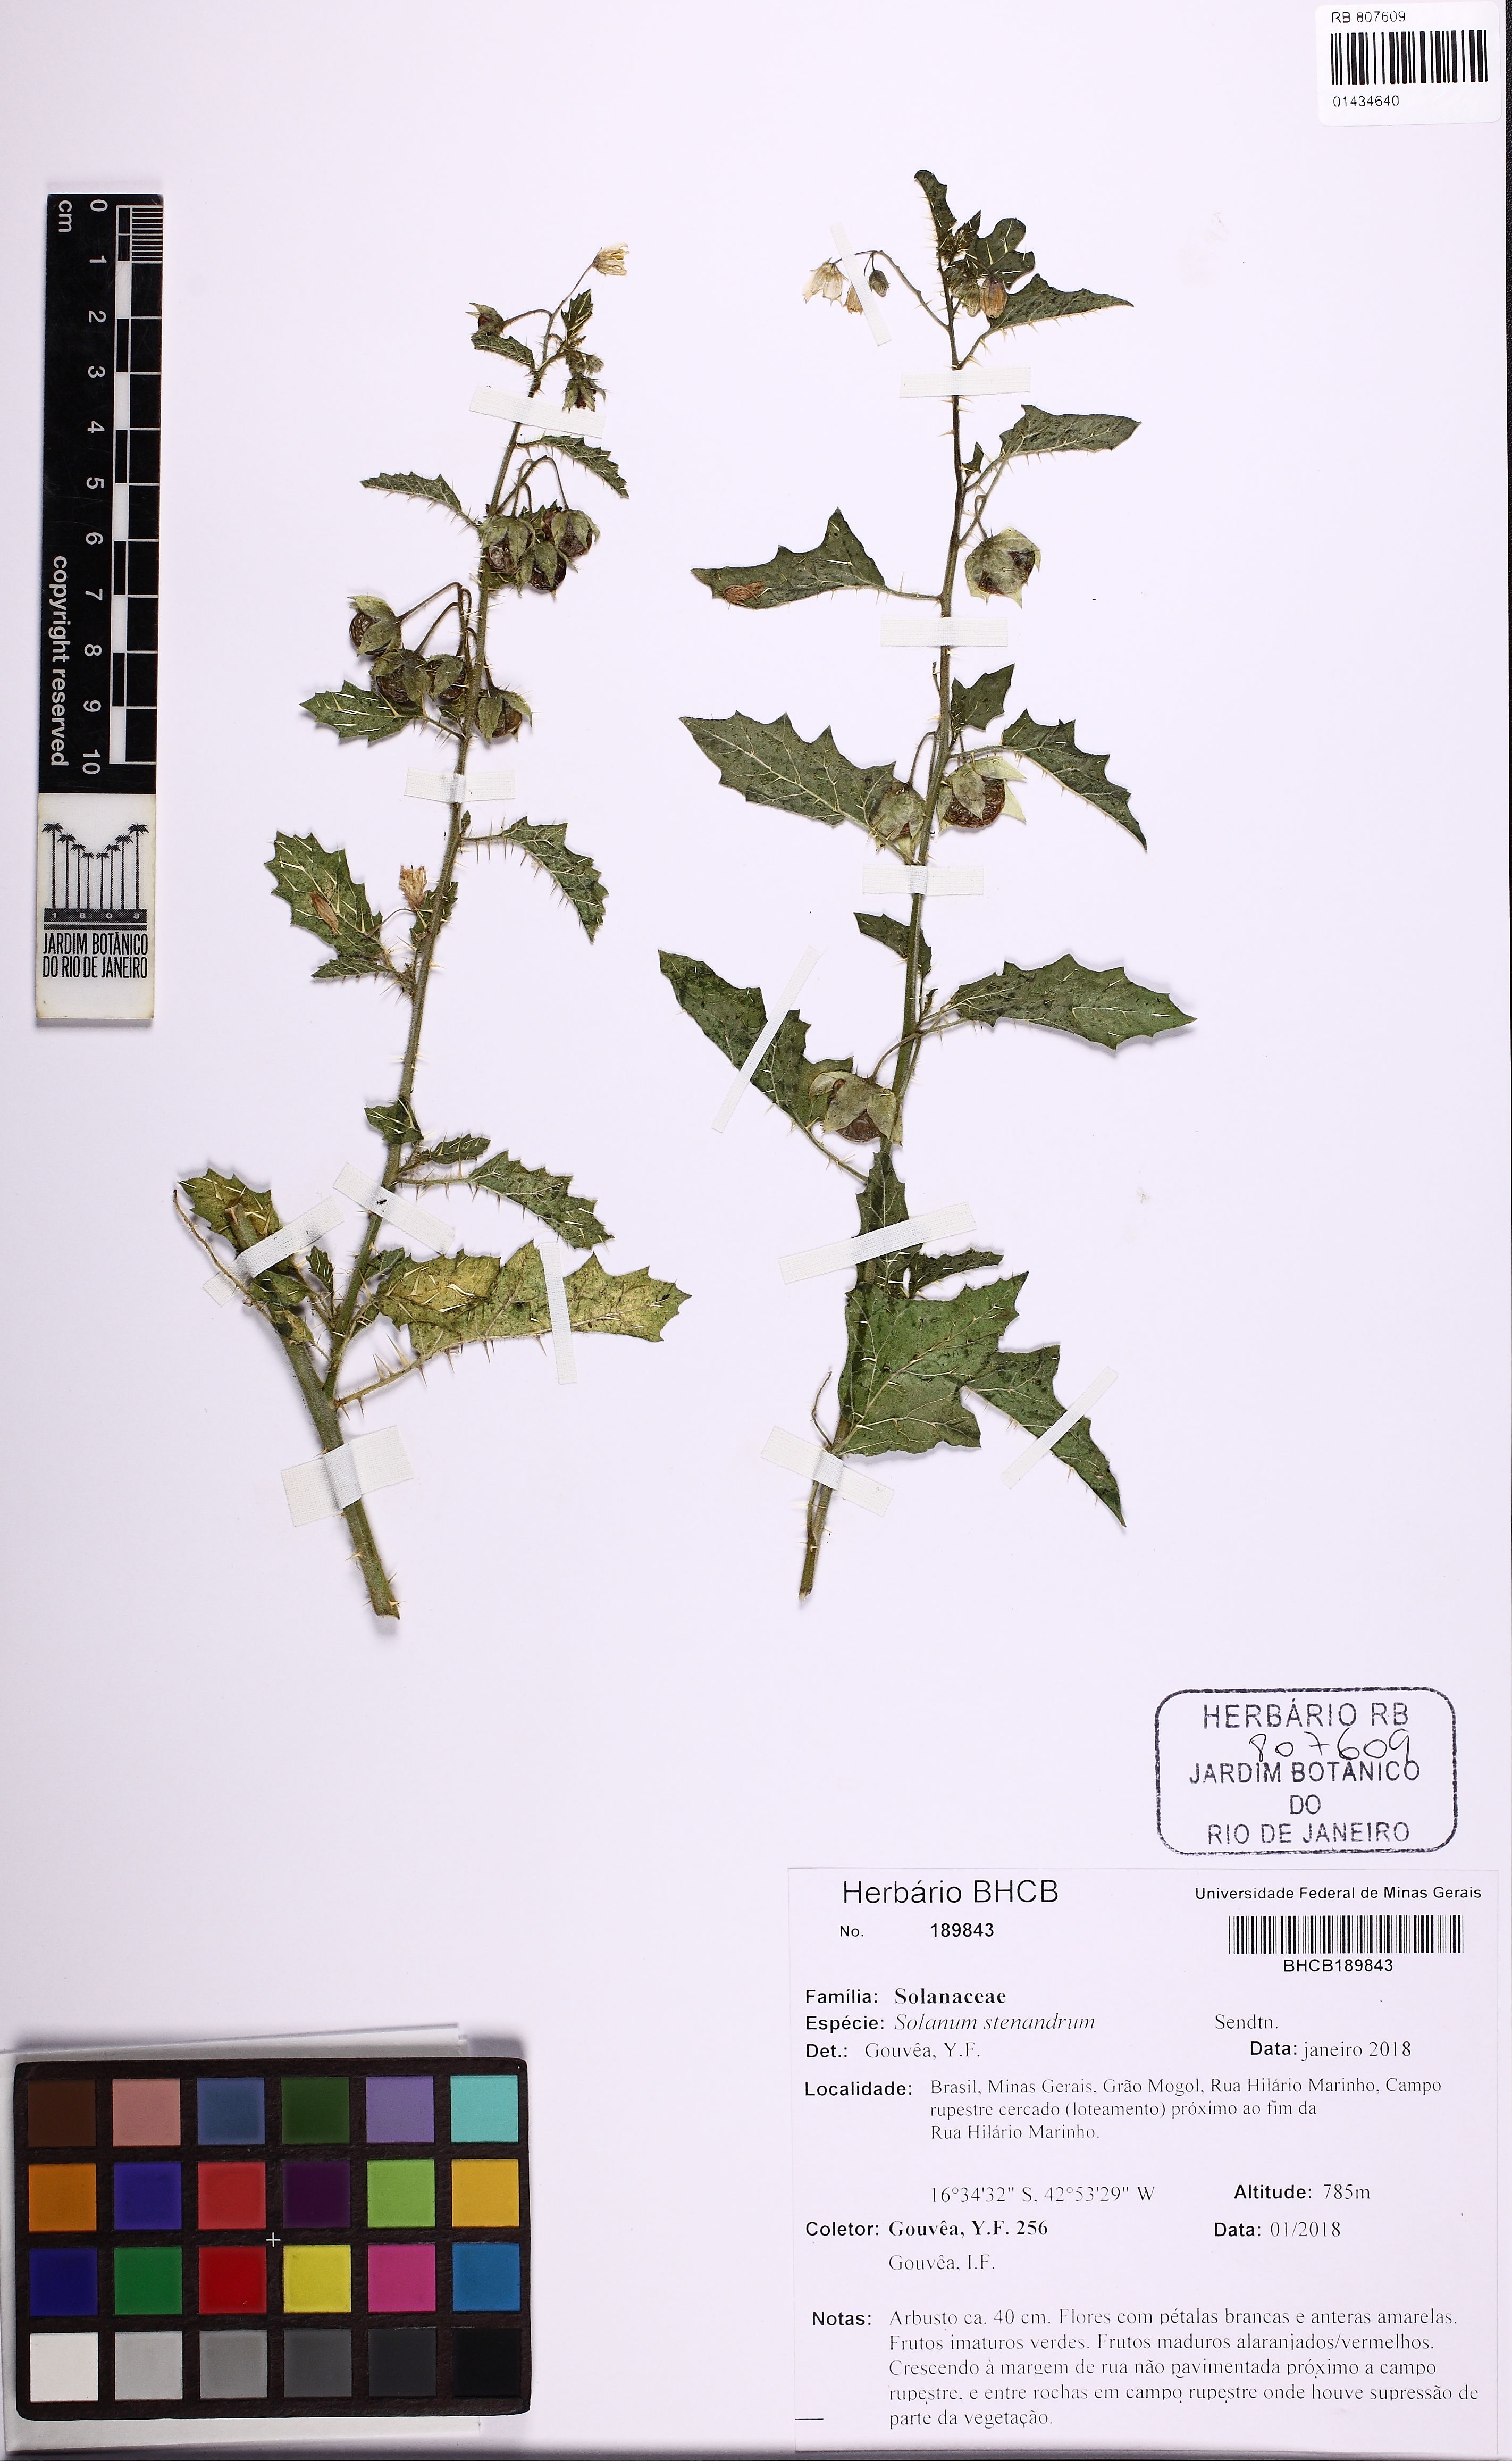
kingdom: Plantae
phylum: Tracheophyta
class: Magnoliopsida
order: Solanales
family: Solanaceae
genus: Solanum
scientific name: Solanum stenandrum
